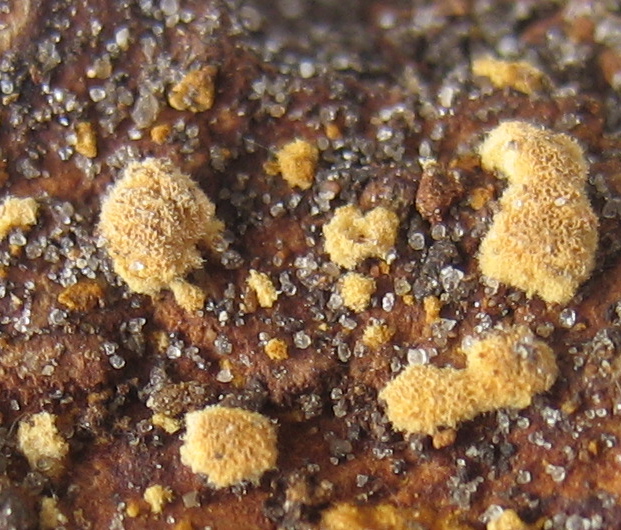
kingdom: Fungi
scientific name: Fungi
